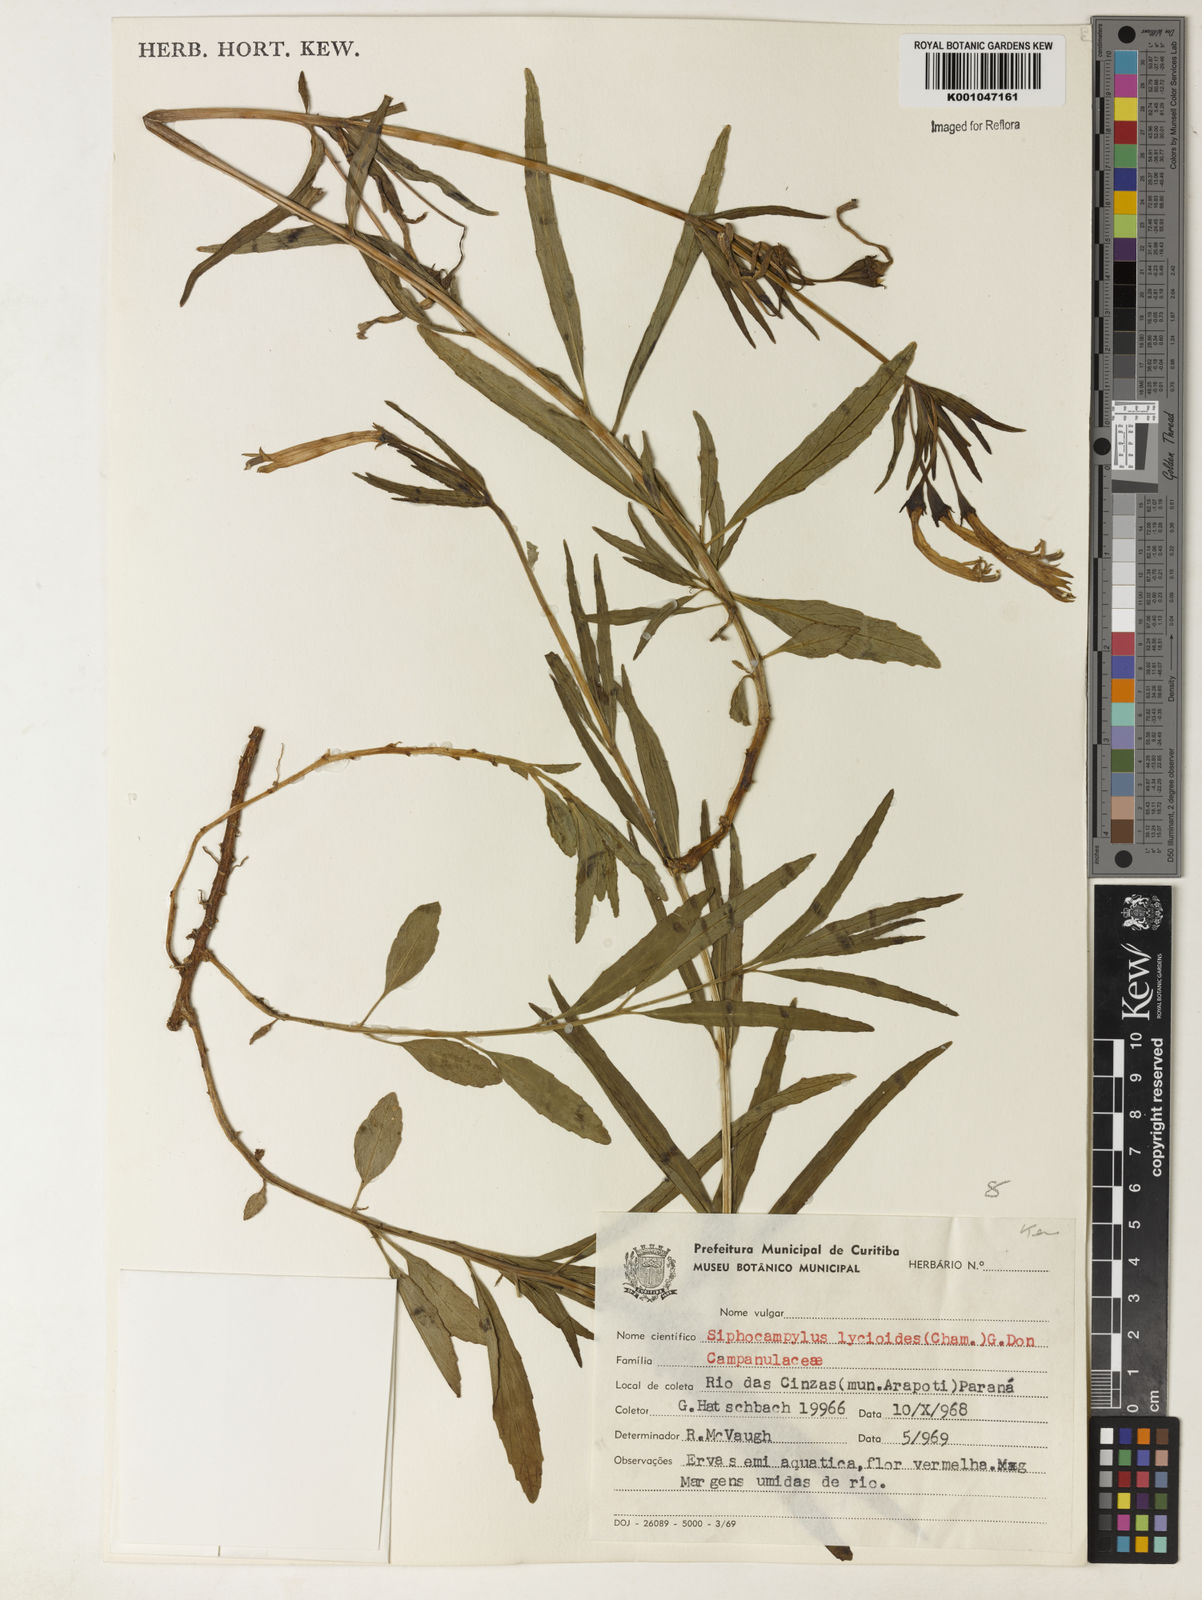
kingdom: Plantae
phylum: Tracheophyta
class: Magnoliopsida
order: Asterales
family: Campanulaceae
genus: Siphocampylus
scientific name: Siphocampylus lycioides
